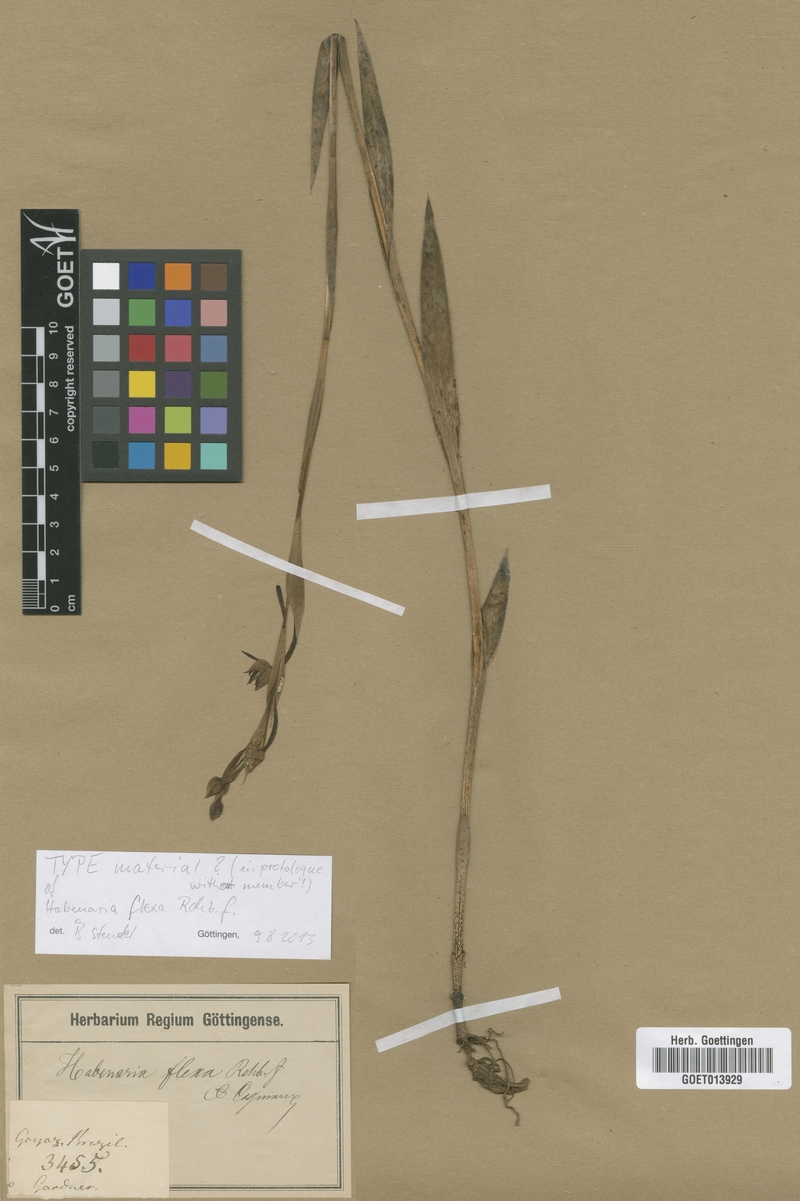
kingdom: Plantae
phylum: Tracheophyta
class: Liliopsida
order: Asparagales
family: Orchidaceae
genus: Habenaria
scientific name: Habenaria trifida
